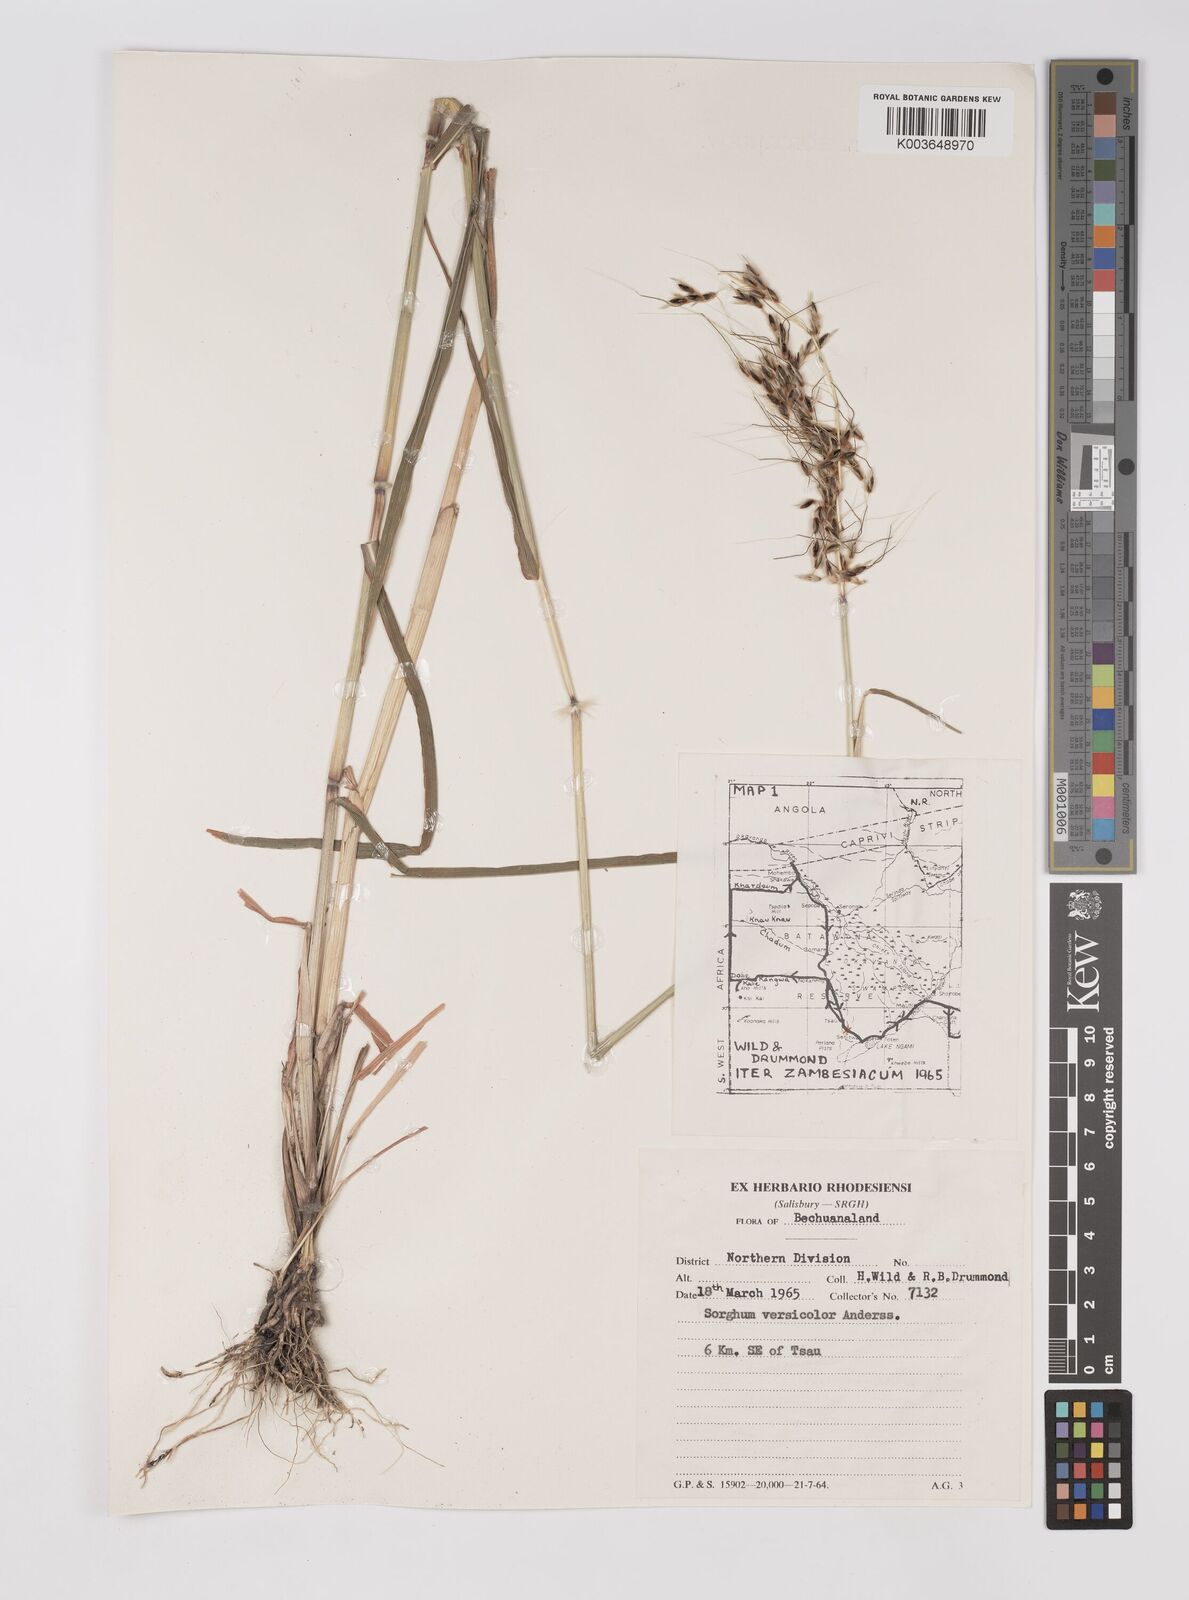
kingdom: Plantae
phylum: Tracheophyta
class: Liliopsida
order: Poales
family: Poaceae
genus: Sarga
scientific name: Sarga versicolor
